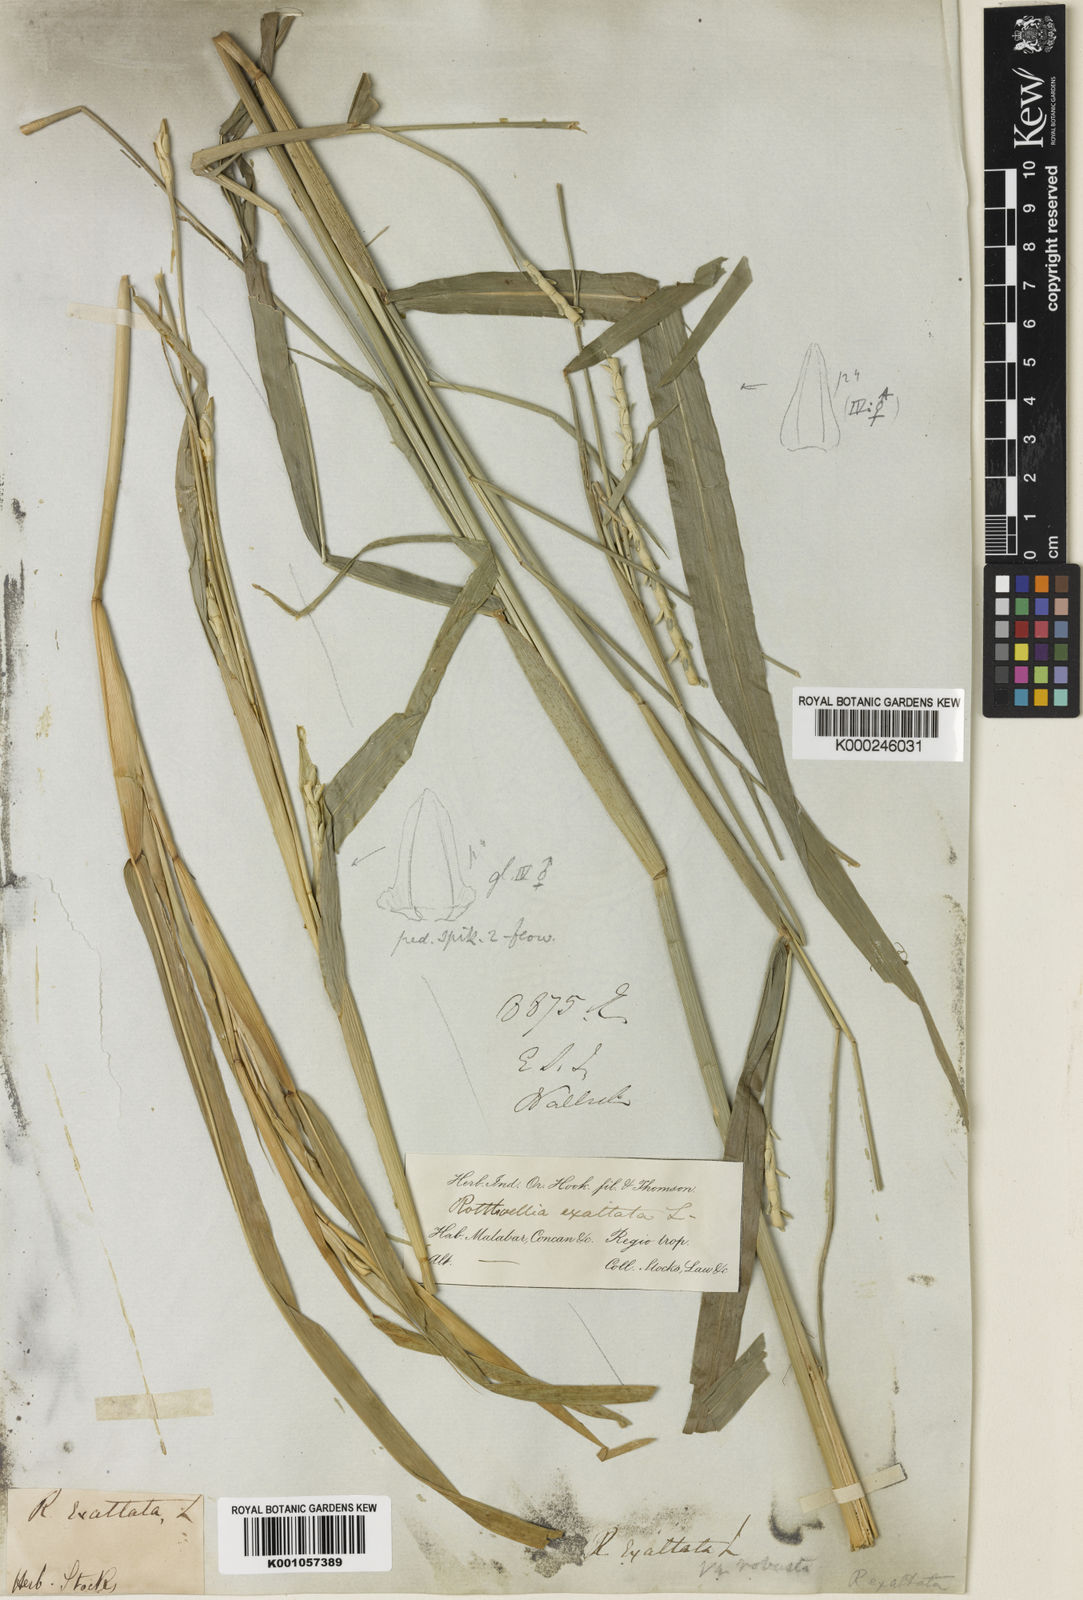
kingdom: Plantae
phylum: Tracheophyta
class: Liliopsida
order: Poales
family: Poaceae
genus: Rottboellia
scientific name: Rottboellia cochinchinensis
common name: Itchgrass
